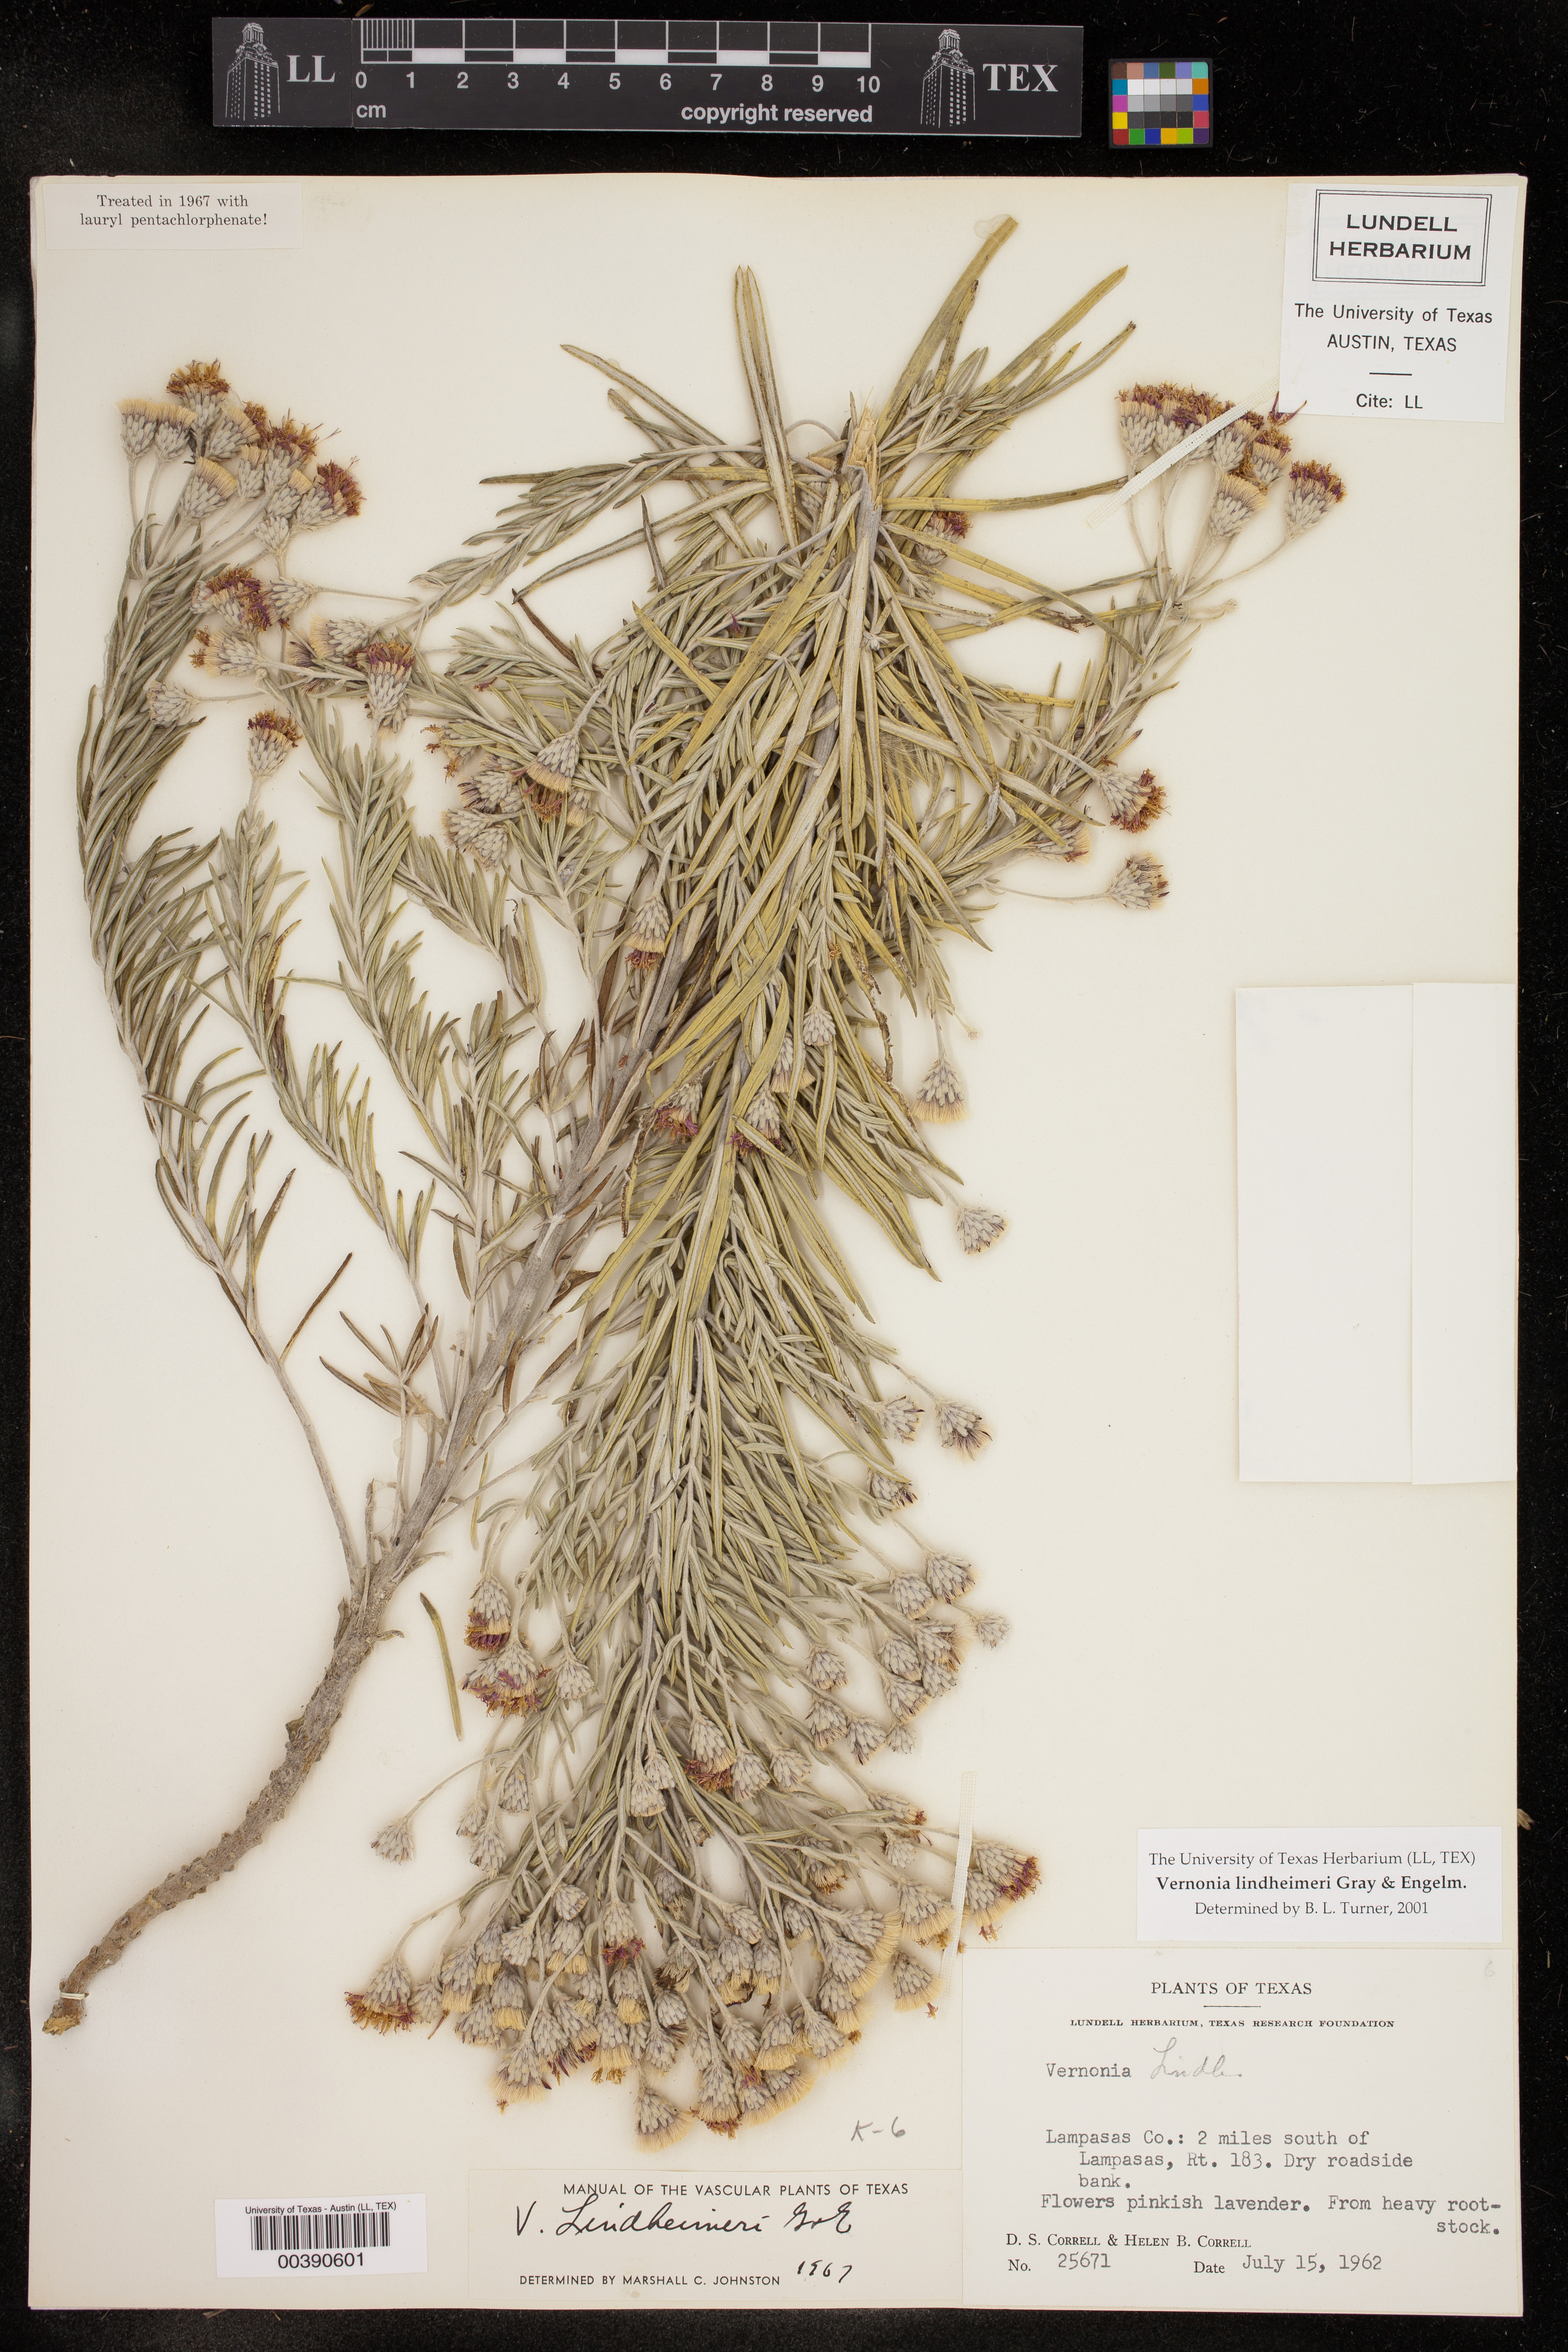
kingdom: Plantae
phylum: Tracheophyta
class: Magnoliopsida
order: Asterales
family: Asteraceae
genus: Vernonia
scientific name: Vernonia lindheimeri
